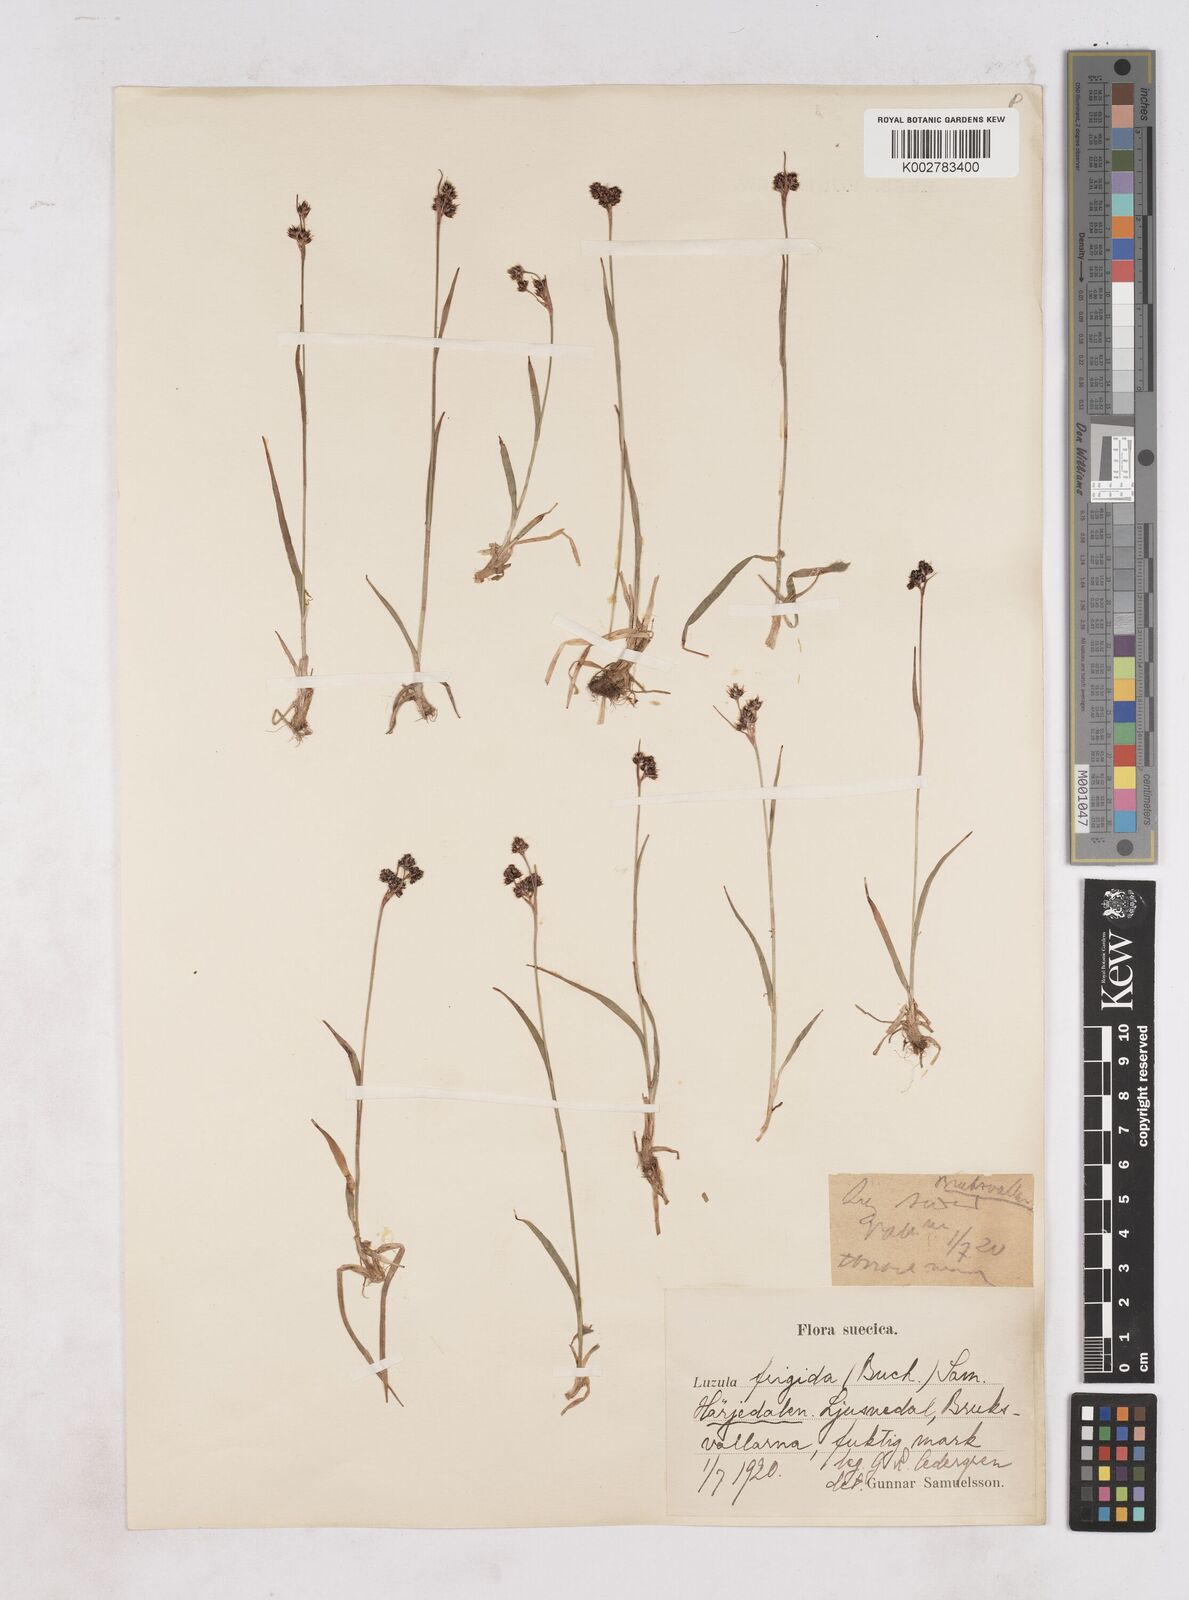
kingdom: Plantae
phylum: Tracheophyta
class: Liliopsida
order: Poales
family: Juncaceae
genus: Luzula
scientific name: Luzula multiflora
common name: Heath wood-rush
